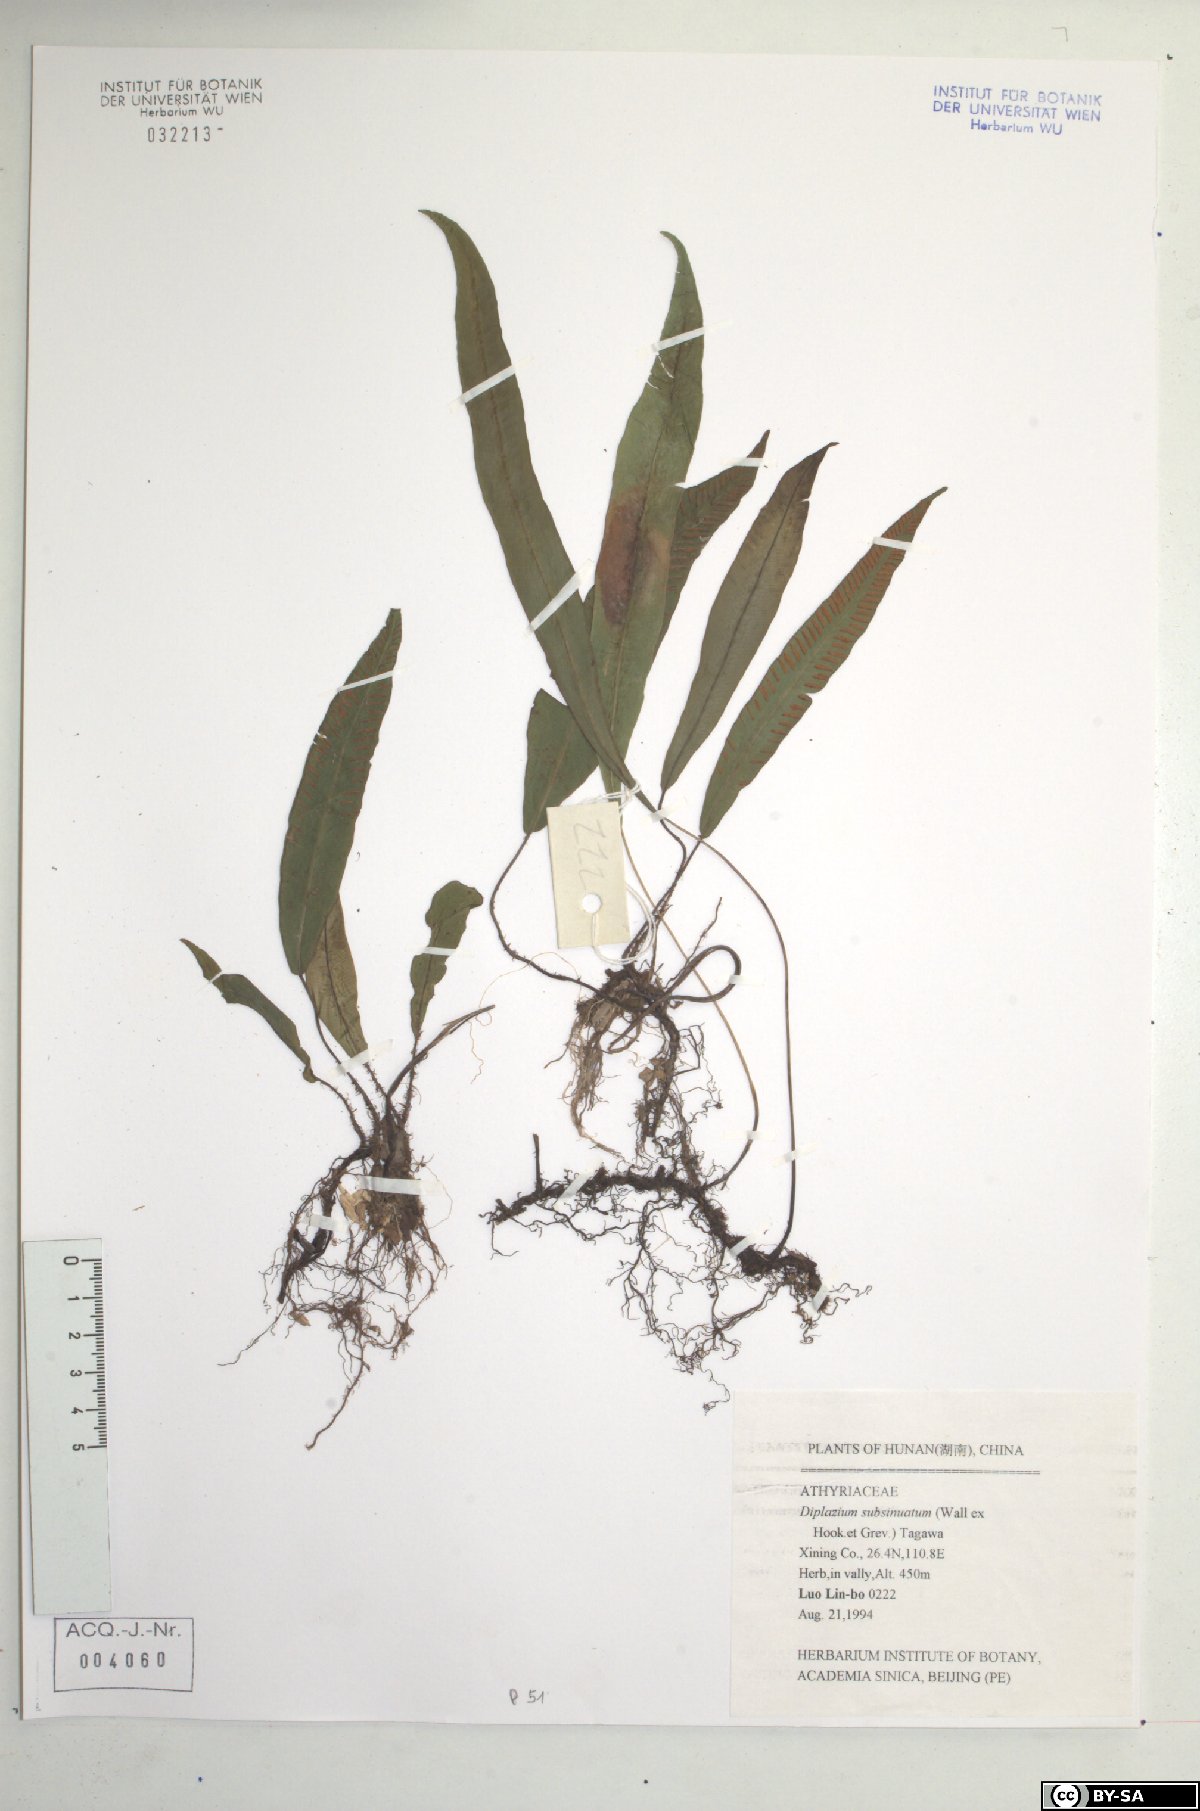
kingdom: Plantae
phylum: Tracheophyta
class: Polypodiopsida
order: Polypodiales
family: Athyriaceae
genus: Deparia
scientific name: Deparia lancea
